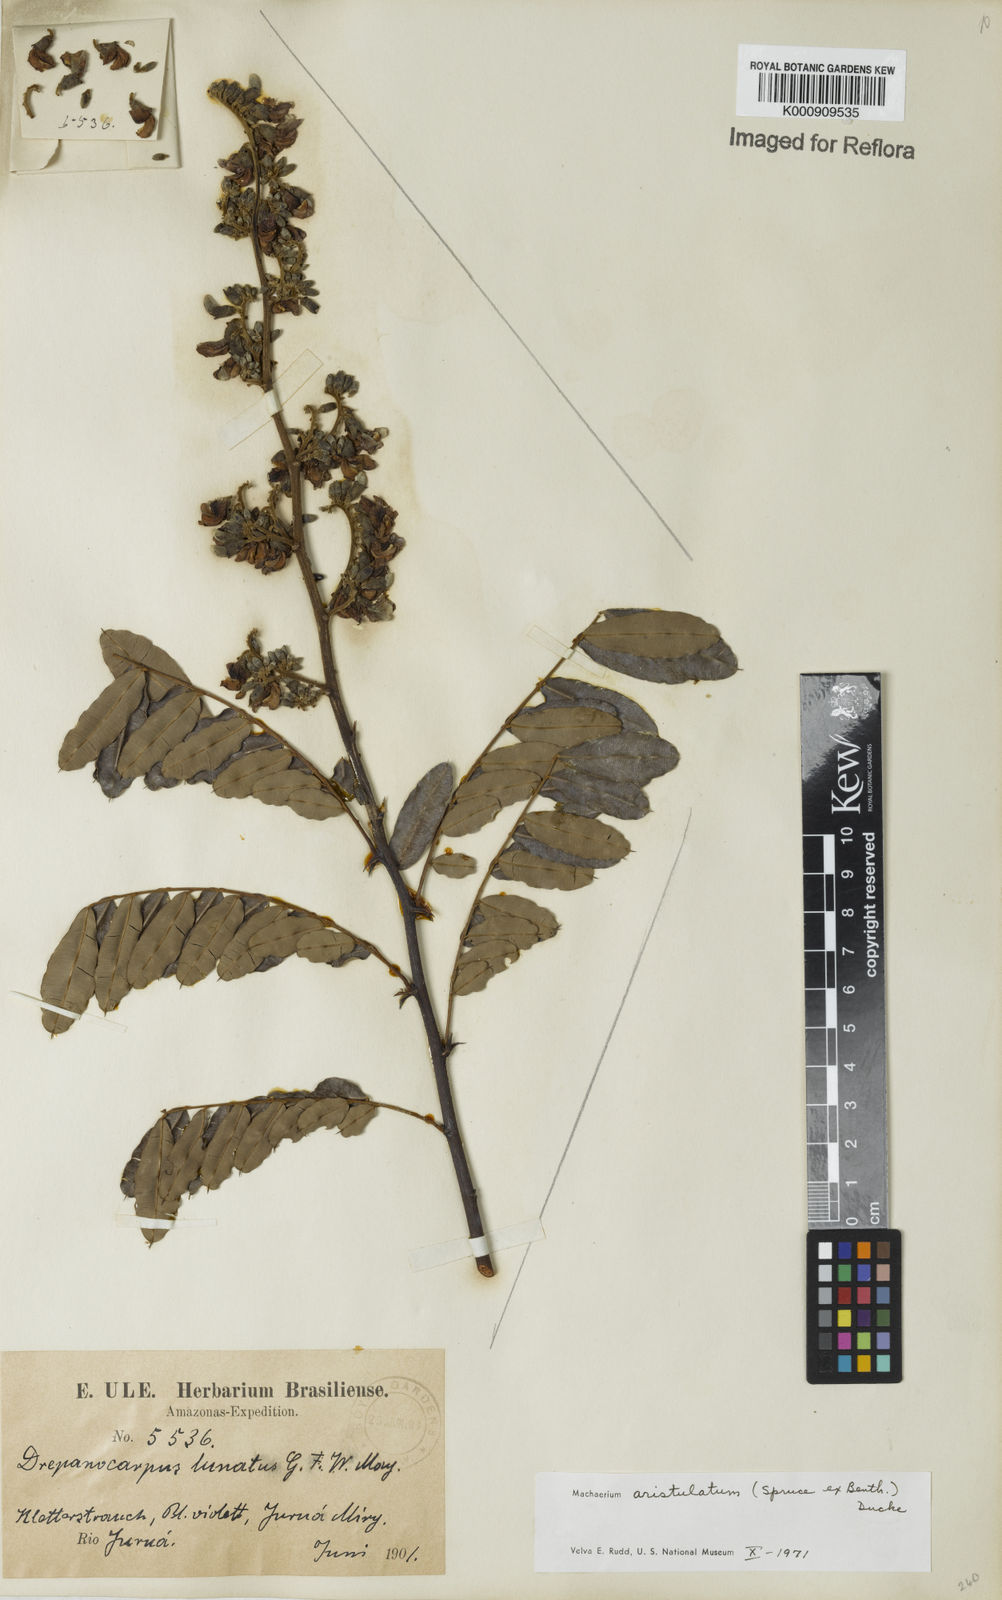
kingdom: Plantae
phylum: Tracheophyta
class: Magnoliopsida
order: Fabales
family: Fabaceae
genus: Machaerium
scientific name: Machaerium aristulatum
